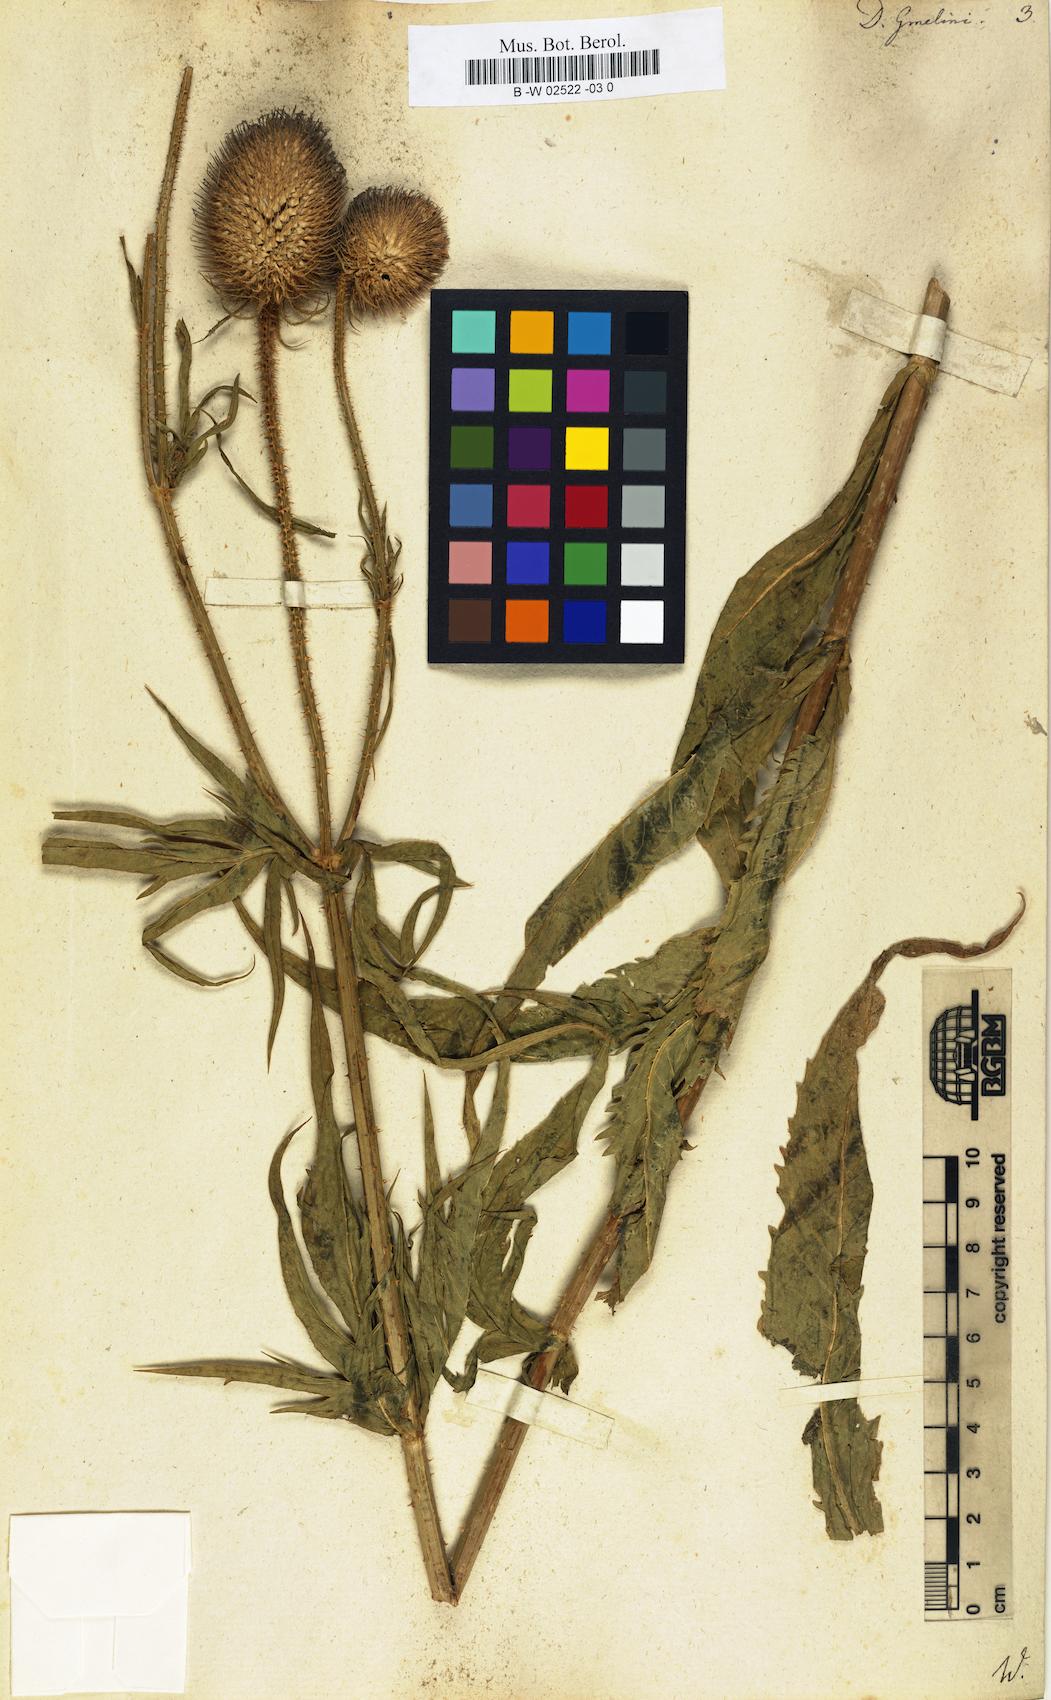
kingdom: Plantae
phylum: Tracheophyta
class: Magnoliopsida
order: Dipsacales
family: Caprifoliaceae
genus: Dipsacus
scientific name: Dipsacus strigosus
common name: Yellow-flowered teasel
